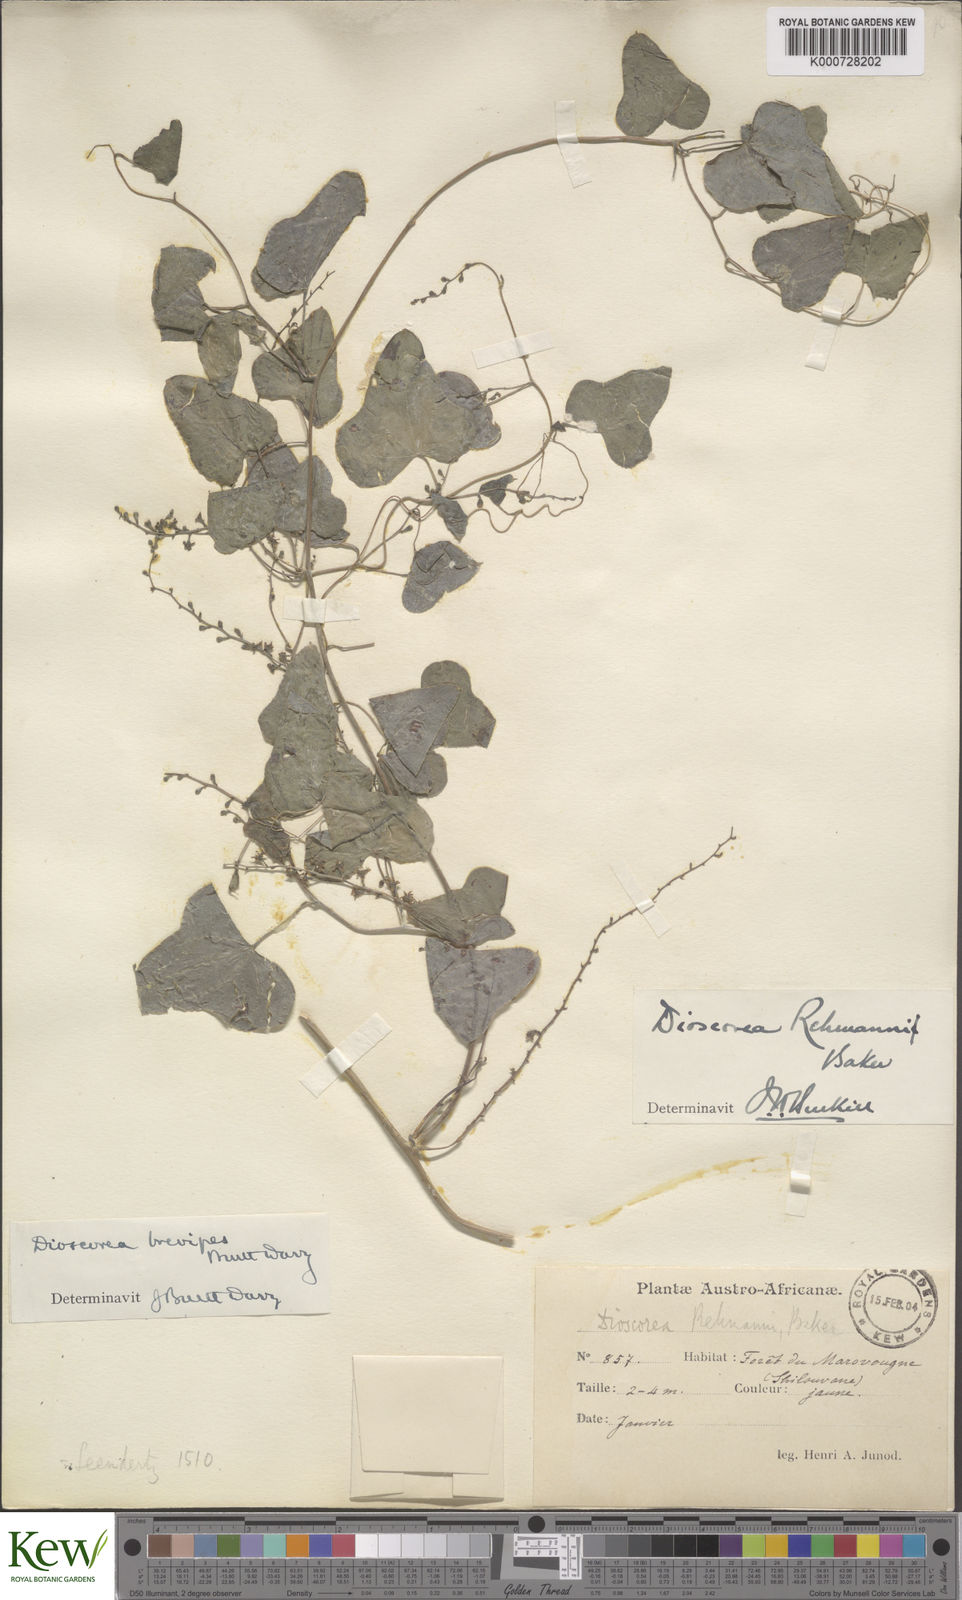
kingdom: Plantae
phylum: Tracheophyta
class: Liliopsida
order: Dioscoreales
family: Dioscoreaceae
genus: Dioscorea
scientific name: Dioscorea sylvatica
